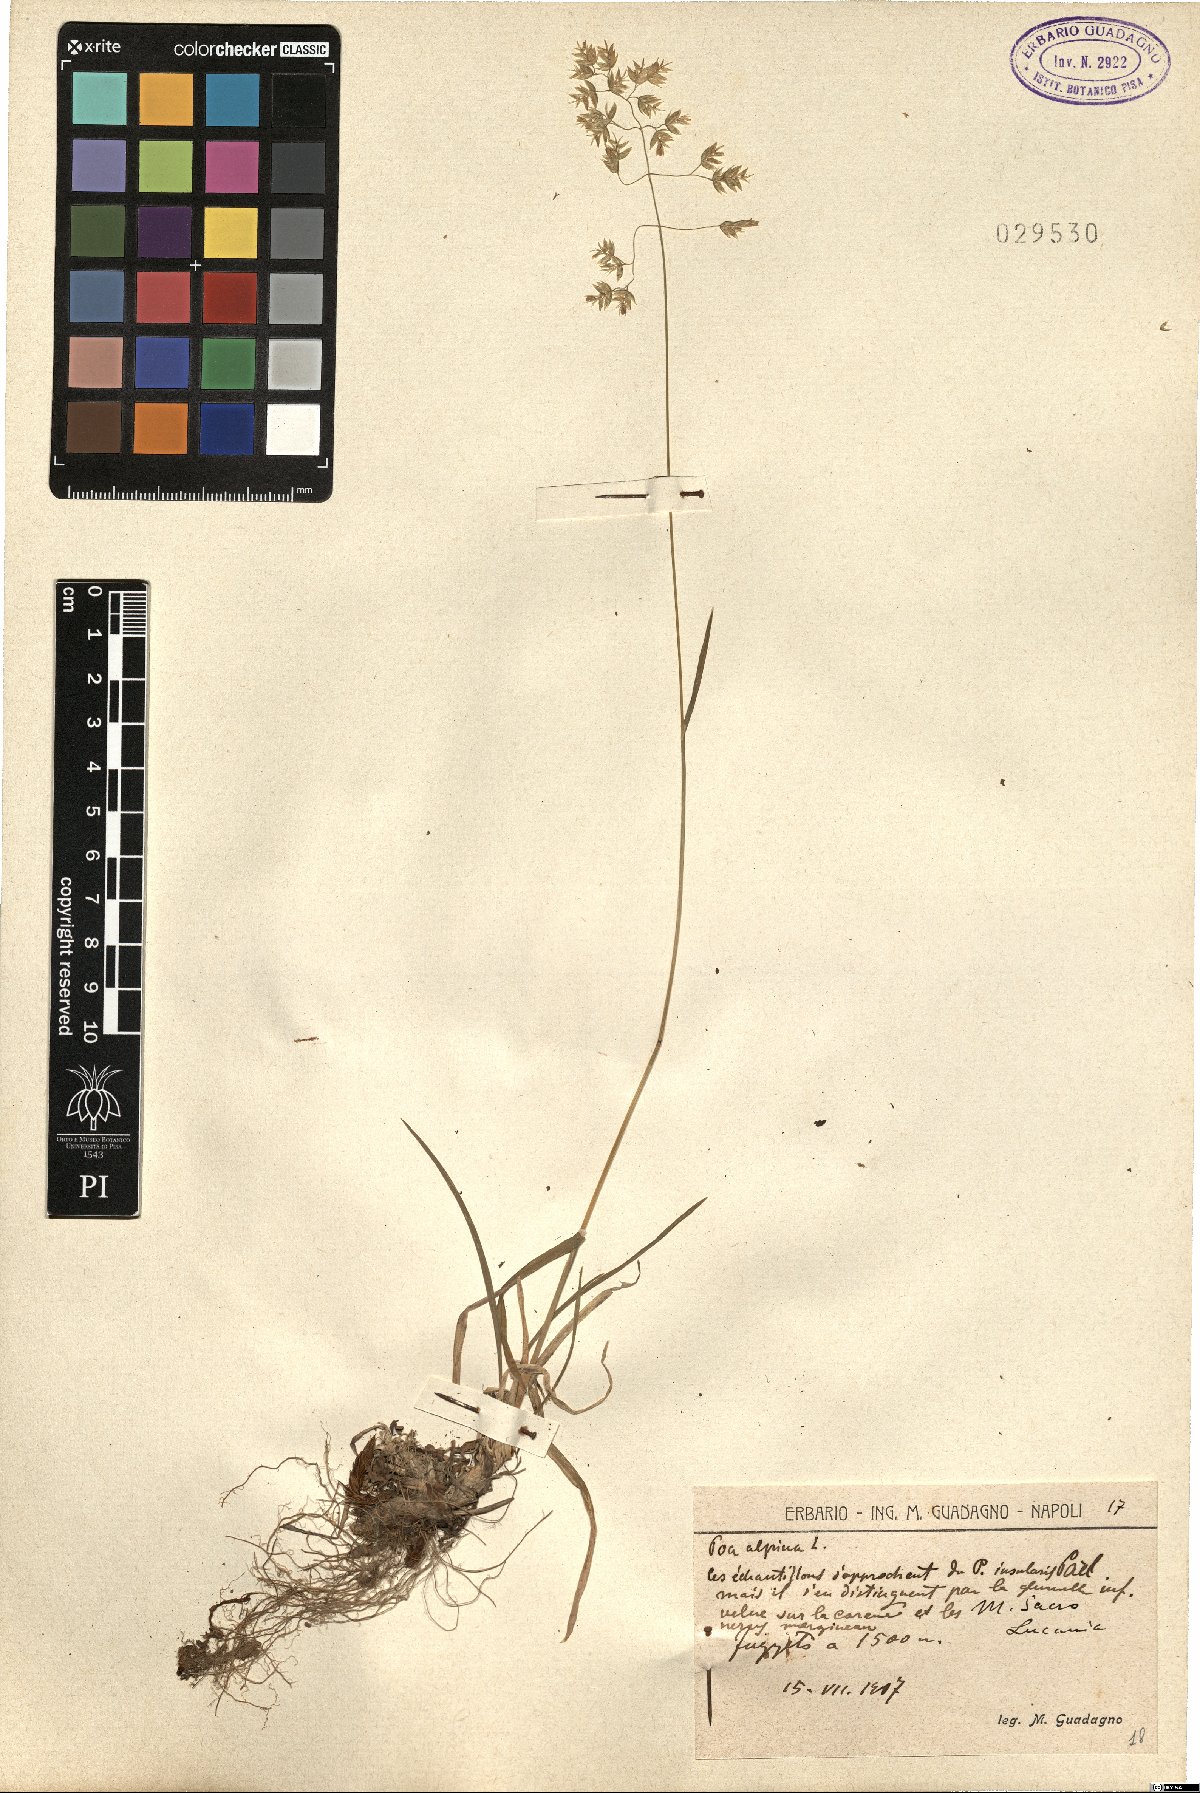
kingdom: Plantae
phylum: Tracheophyta
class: Liliopsida
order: Poales
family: Poaceae
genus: Poa
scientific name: Poa alpina
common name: Alpine bluegrass
